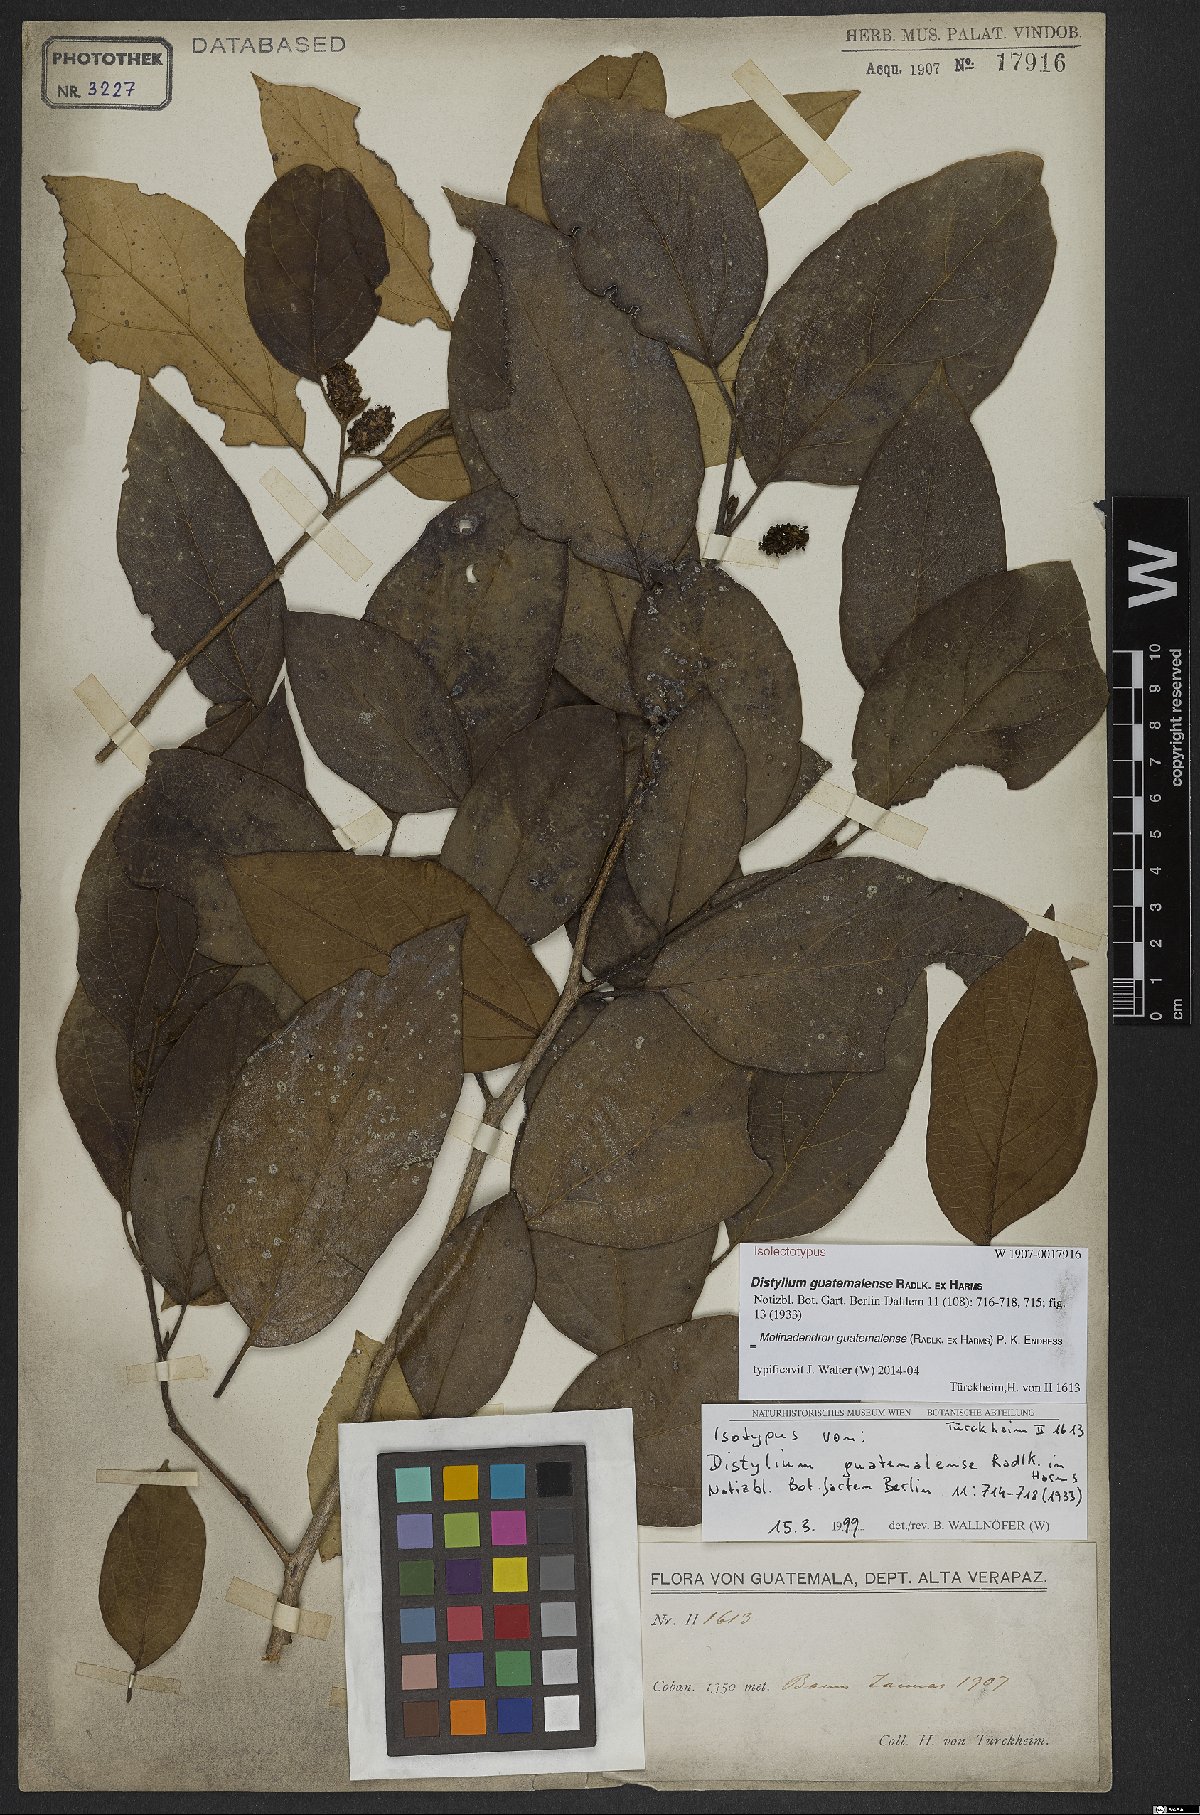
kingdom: Plantae
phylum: Tracheophyta
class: Magnoliopsida
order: Saxifragales
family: Hamamelidaceae
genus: Molinadendron
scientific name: Molinadendron guatemalense
